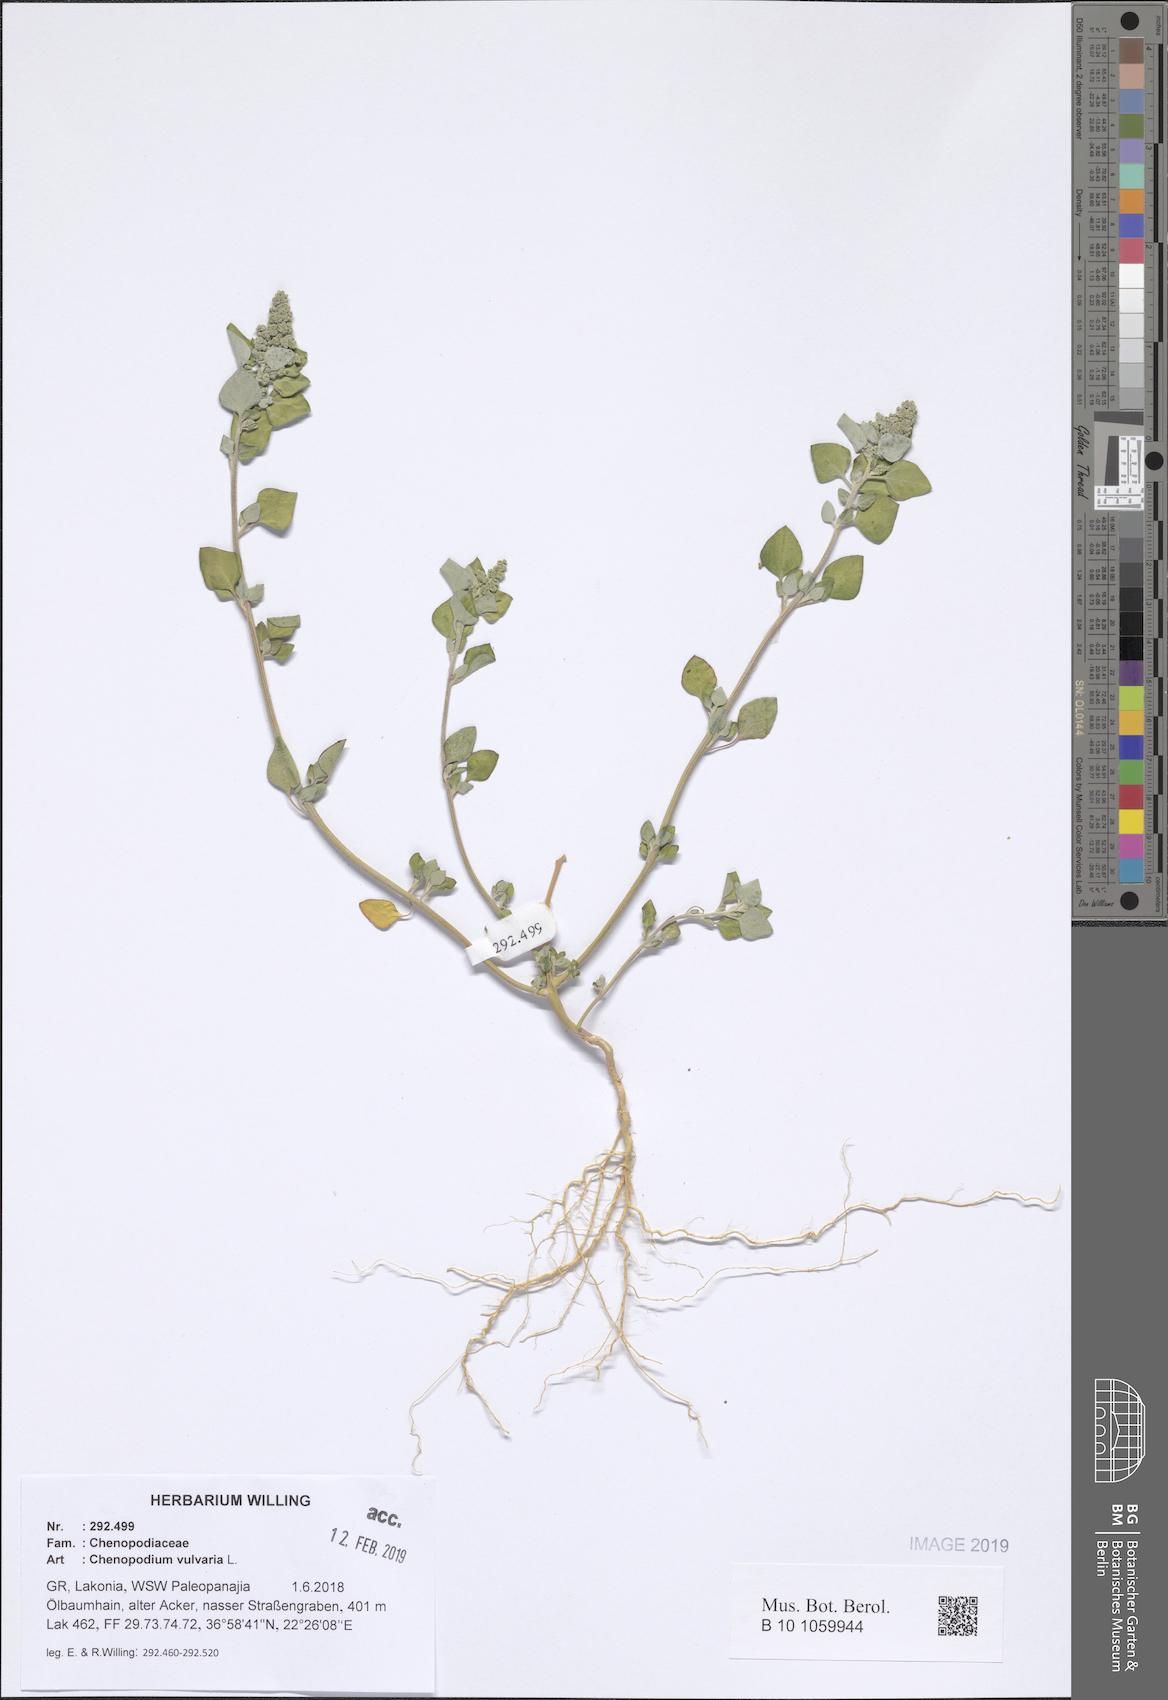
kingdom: Plantae
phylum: Tracheophyta
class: Magnoliopsida
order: Caryophyllales
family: Amaranthaceae
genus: Chenopodium
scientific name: Chenopodium vulvaria
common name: Stinking goosefoot
